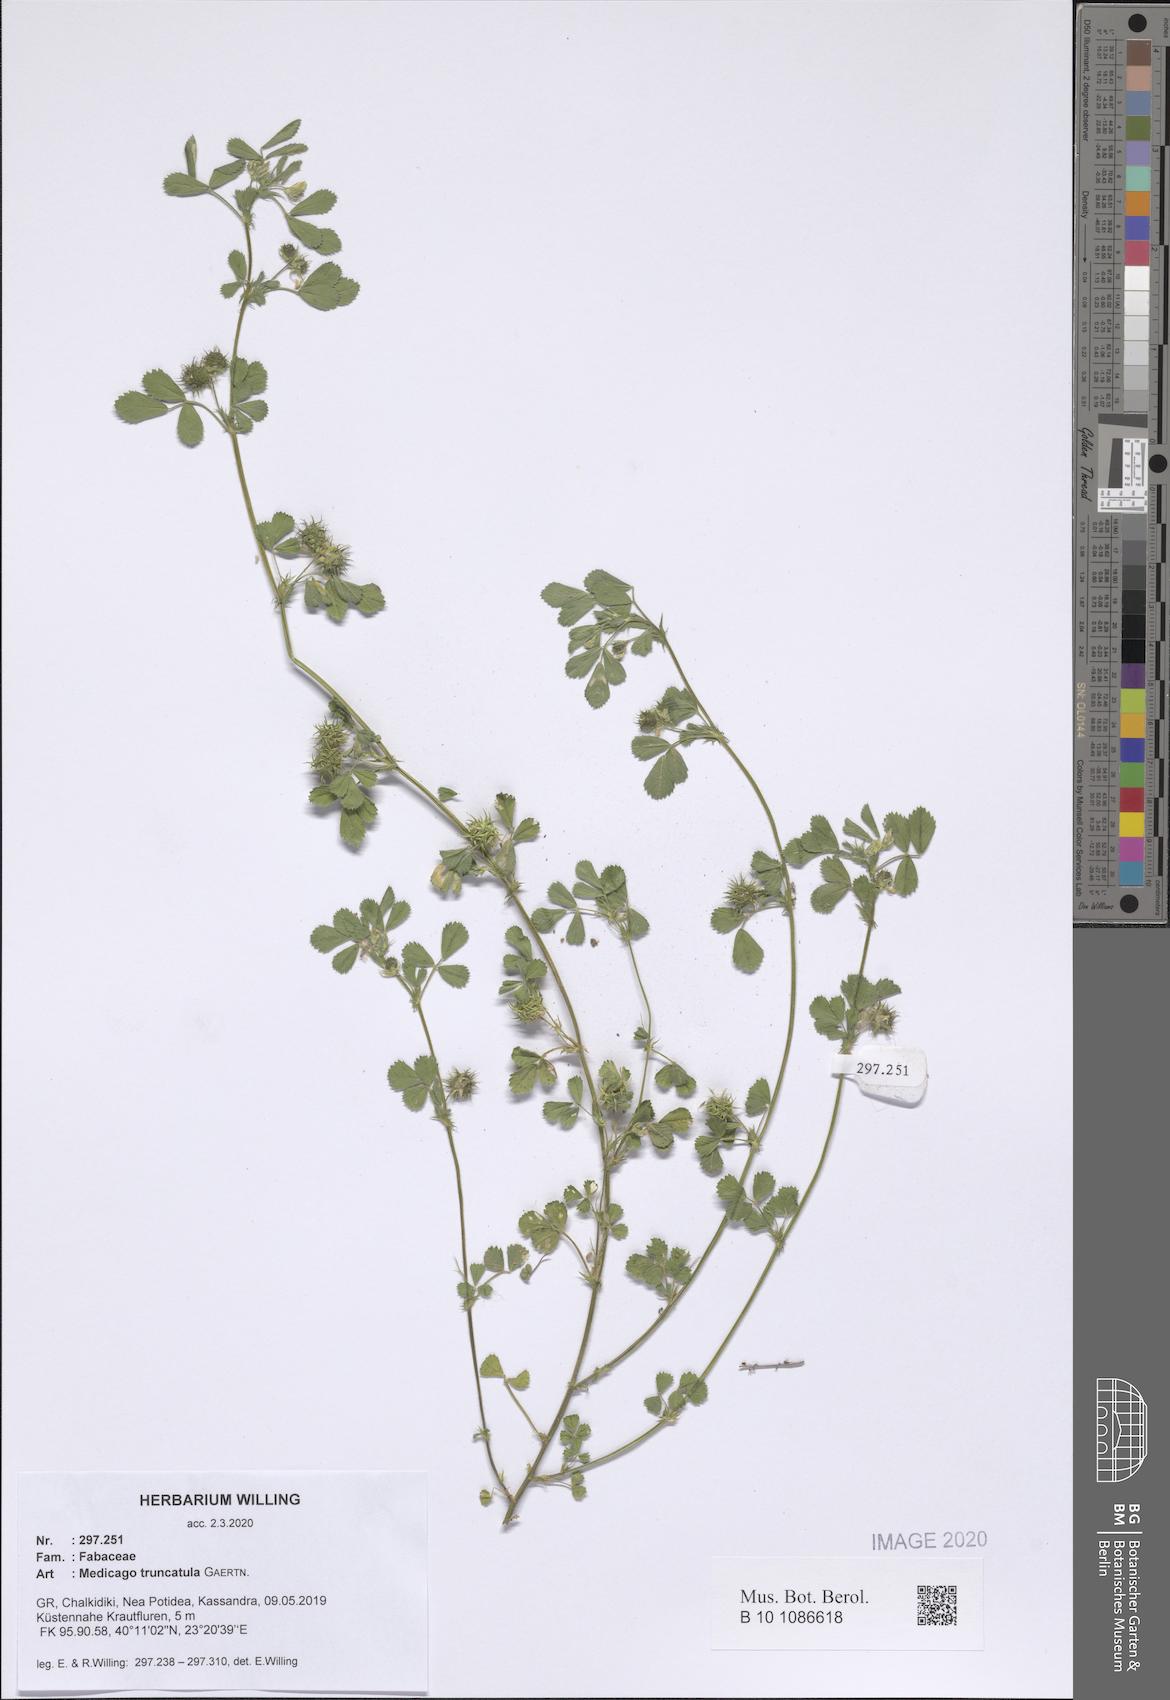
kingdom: Plantae
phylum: Tracheophyta
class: Magnoliopsida
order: Fabales
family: Fabaceae
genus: Medicago
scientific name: Medicago truncatula
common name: Strong-spined medick
